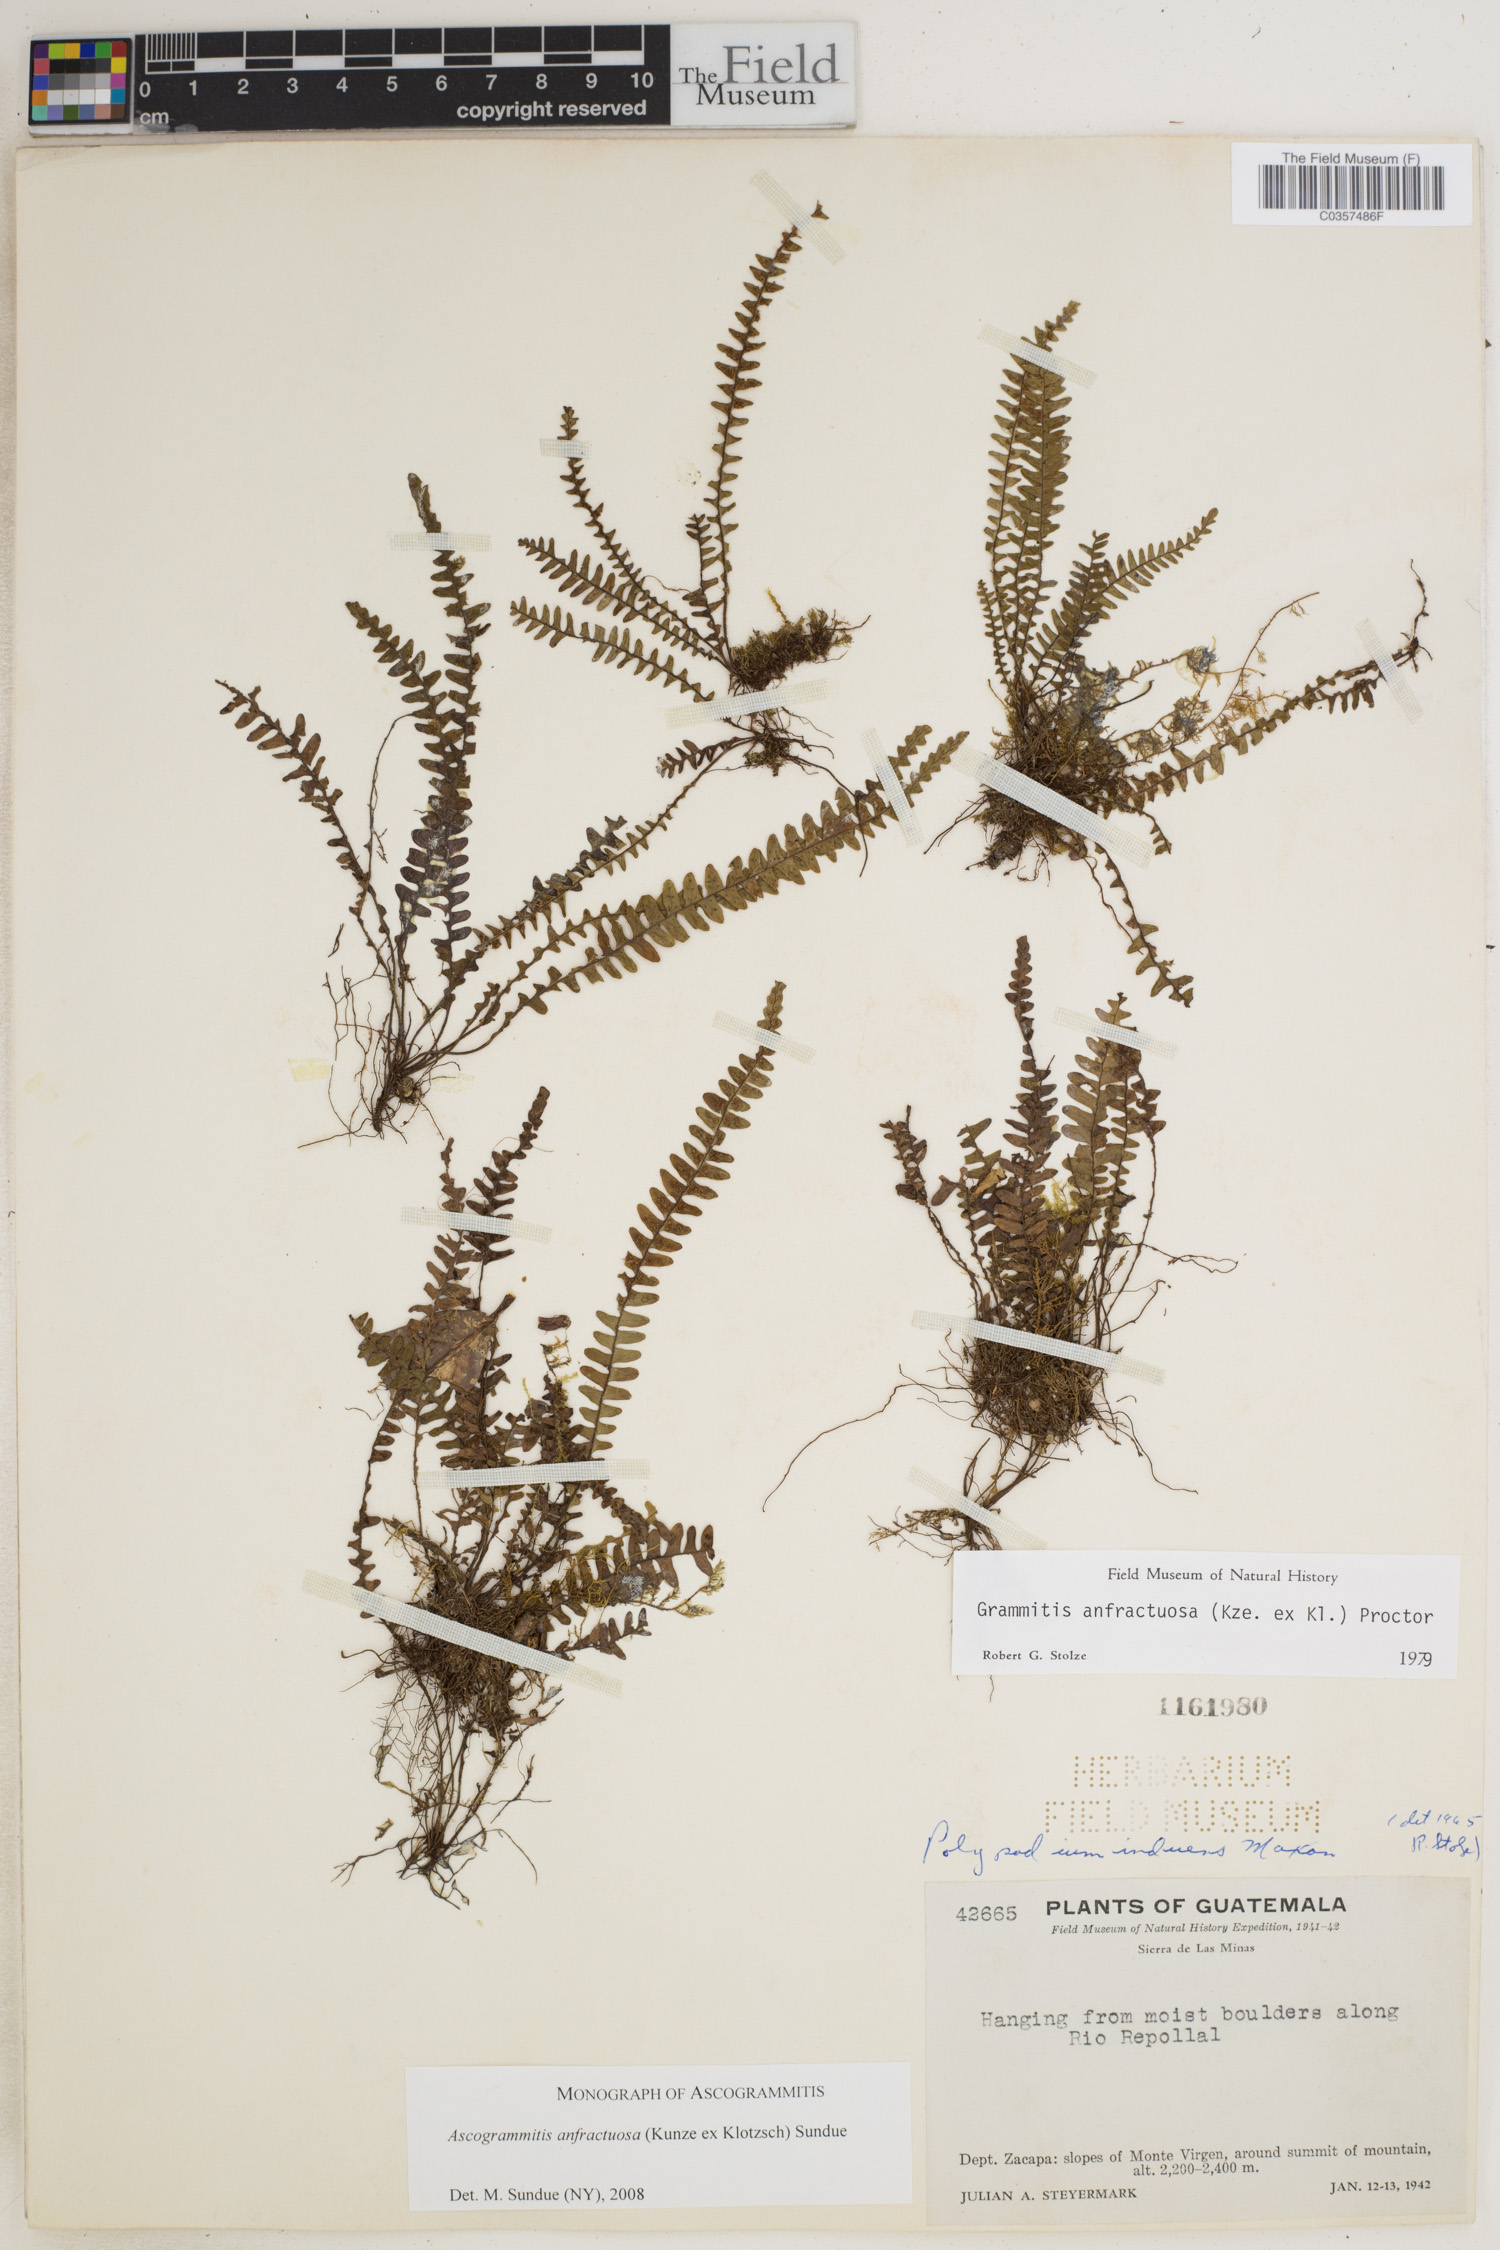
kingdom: Plantae
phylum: Tracheophyta
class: Polypodiopsida
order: Polypodiales
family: Polypodiaceae
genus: Ascogrammitis
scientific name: Ascogrammitis anfractuosa
